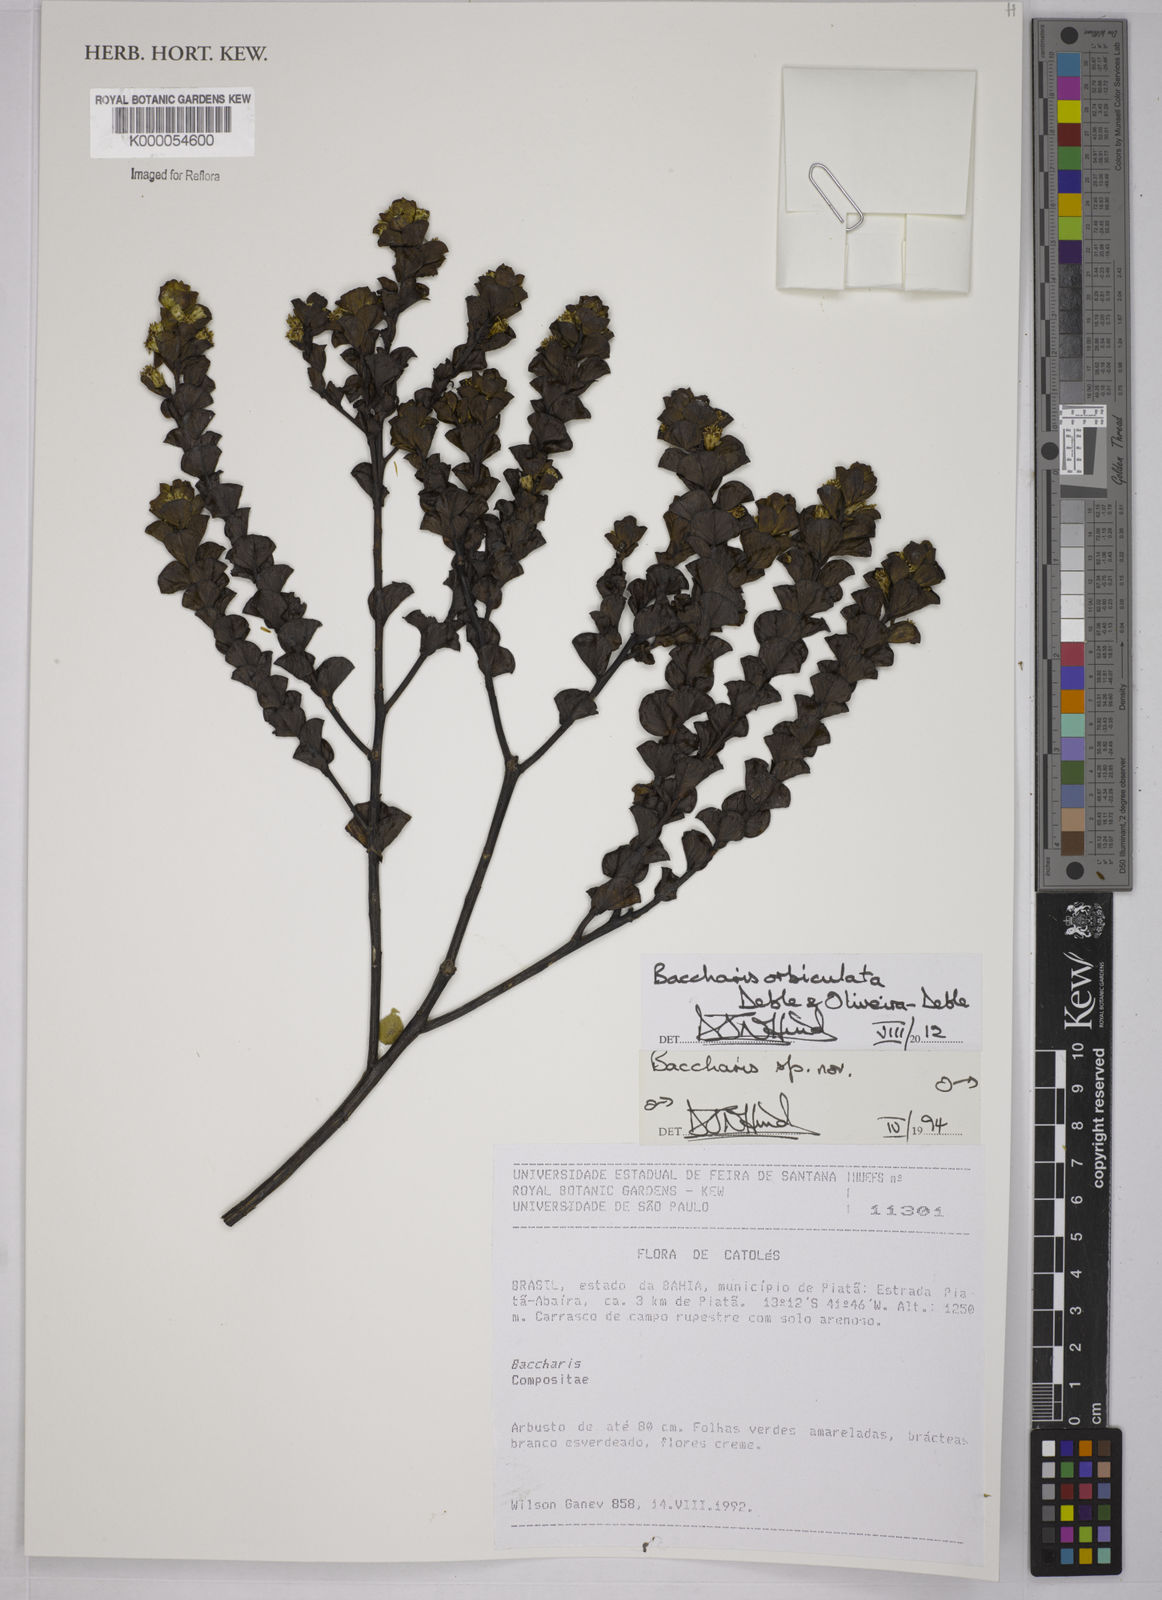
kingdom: Plantae
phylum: Tracheophyta
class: Magnoliopsida
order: Asterales
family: Asteraceae
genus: Baccharis
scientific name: Baccharis
